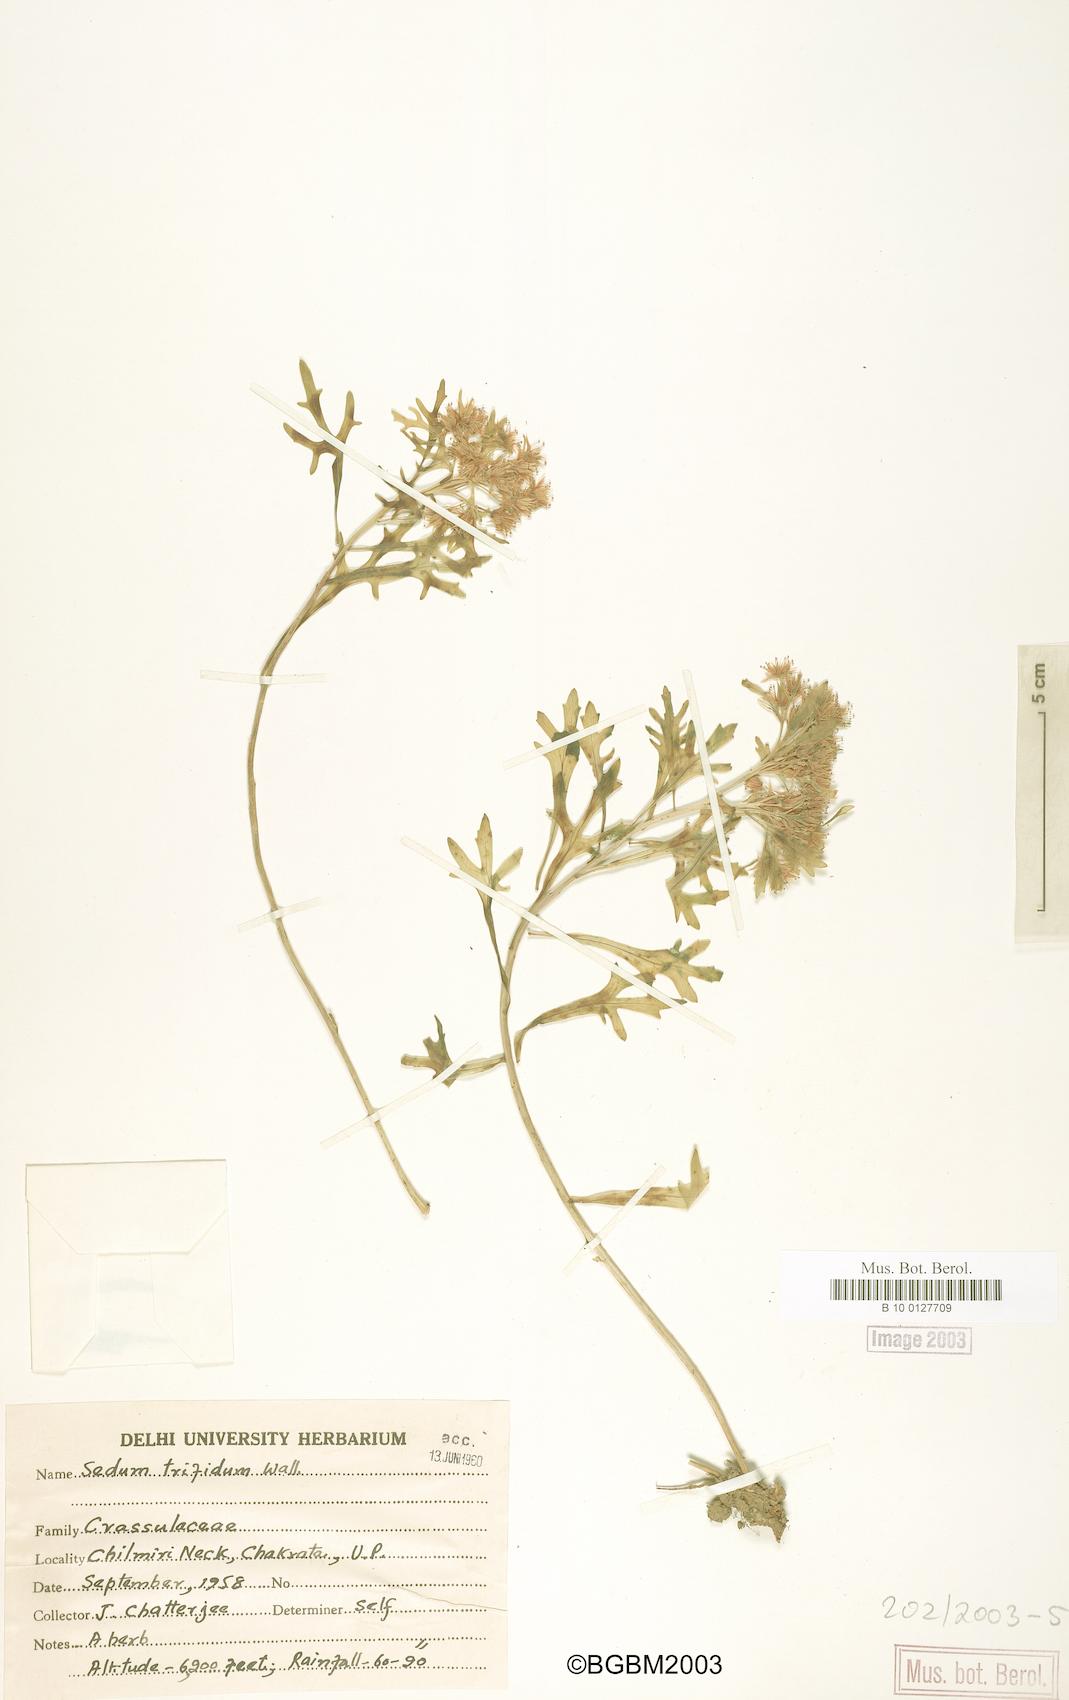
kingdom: Plantae
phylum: Tracheophyta
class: Magnoliopsida
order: Saxifragales
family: Crassulaceae
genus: Sedum
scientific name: Sedum trifidum
